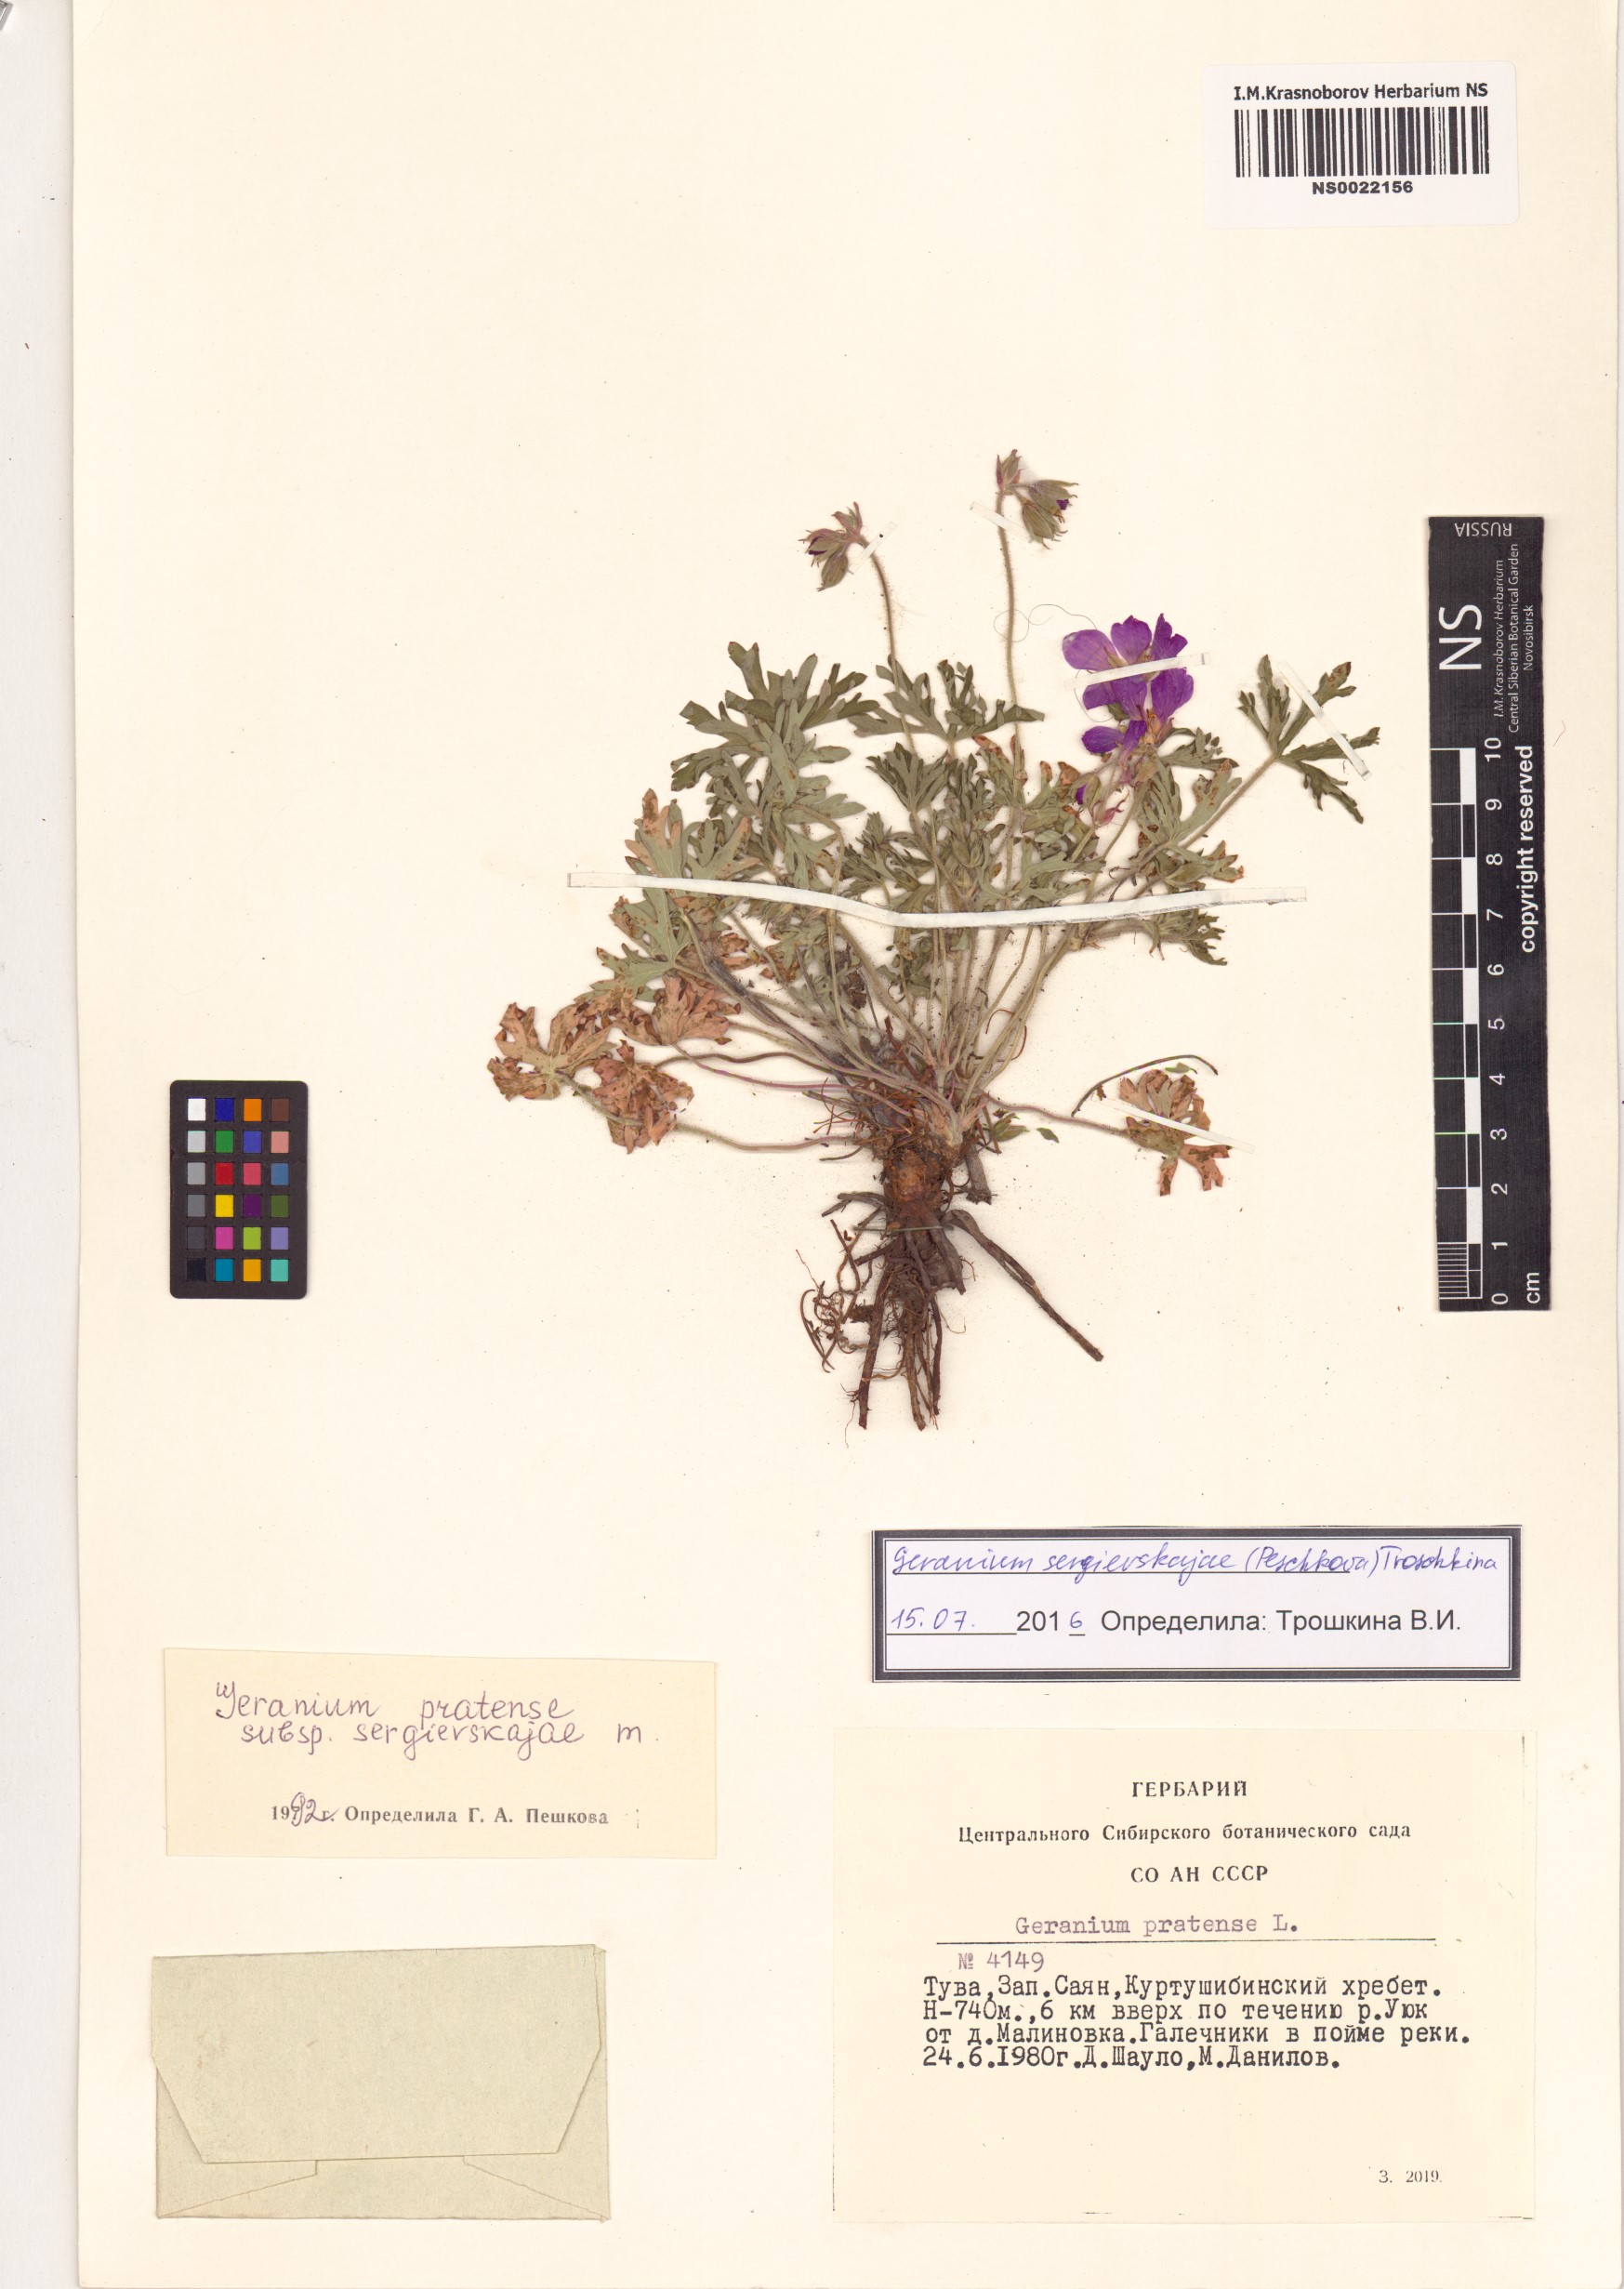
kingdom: Plantae
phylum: Tracheophyta
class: Magnoliopsida
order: Geraniales
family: Geraniaceae
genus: Geranium
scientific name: Geranium pratense
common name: Meadow crane's-bill
